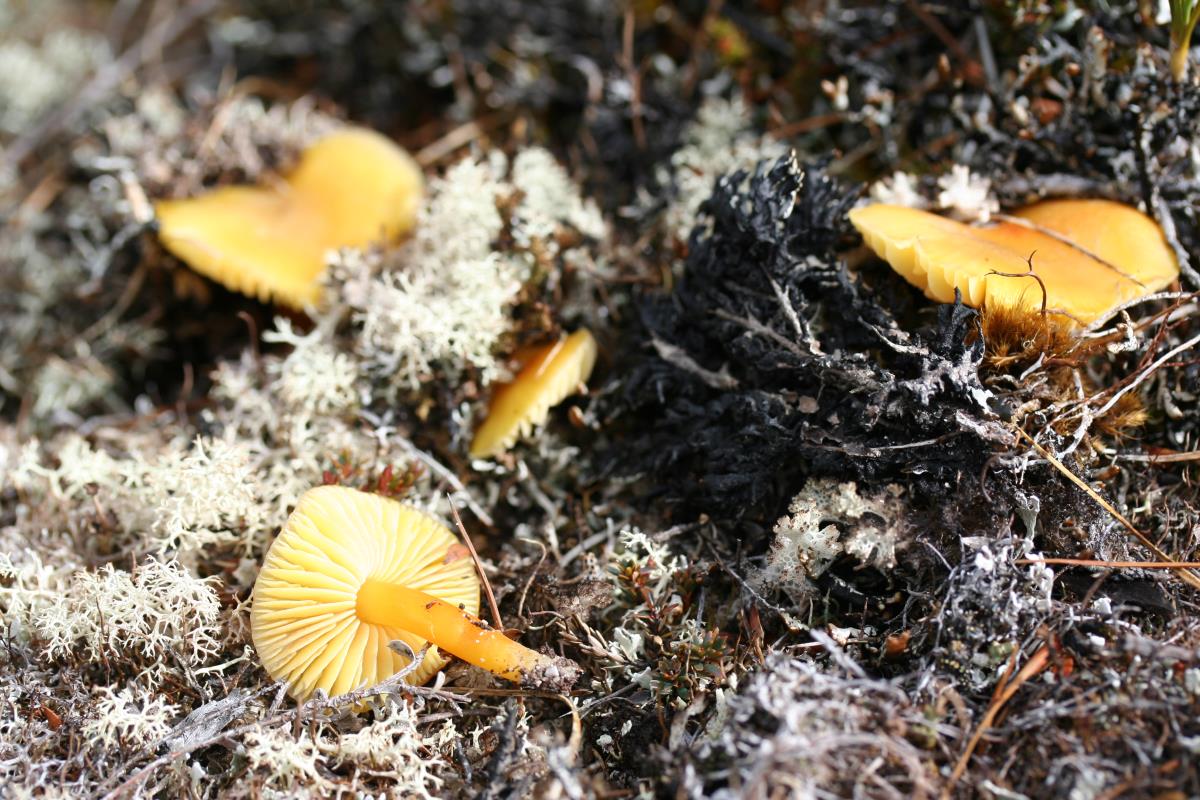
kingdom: Fungi
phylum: Basidiomycota
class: Agaricomycetes
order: Agaricales
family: Hygrophoraceae
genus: Hygrocybe
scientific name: Hygrocybe fuliginata
